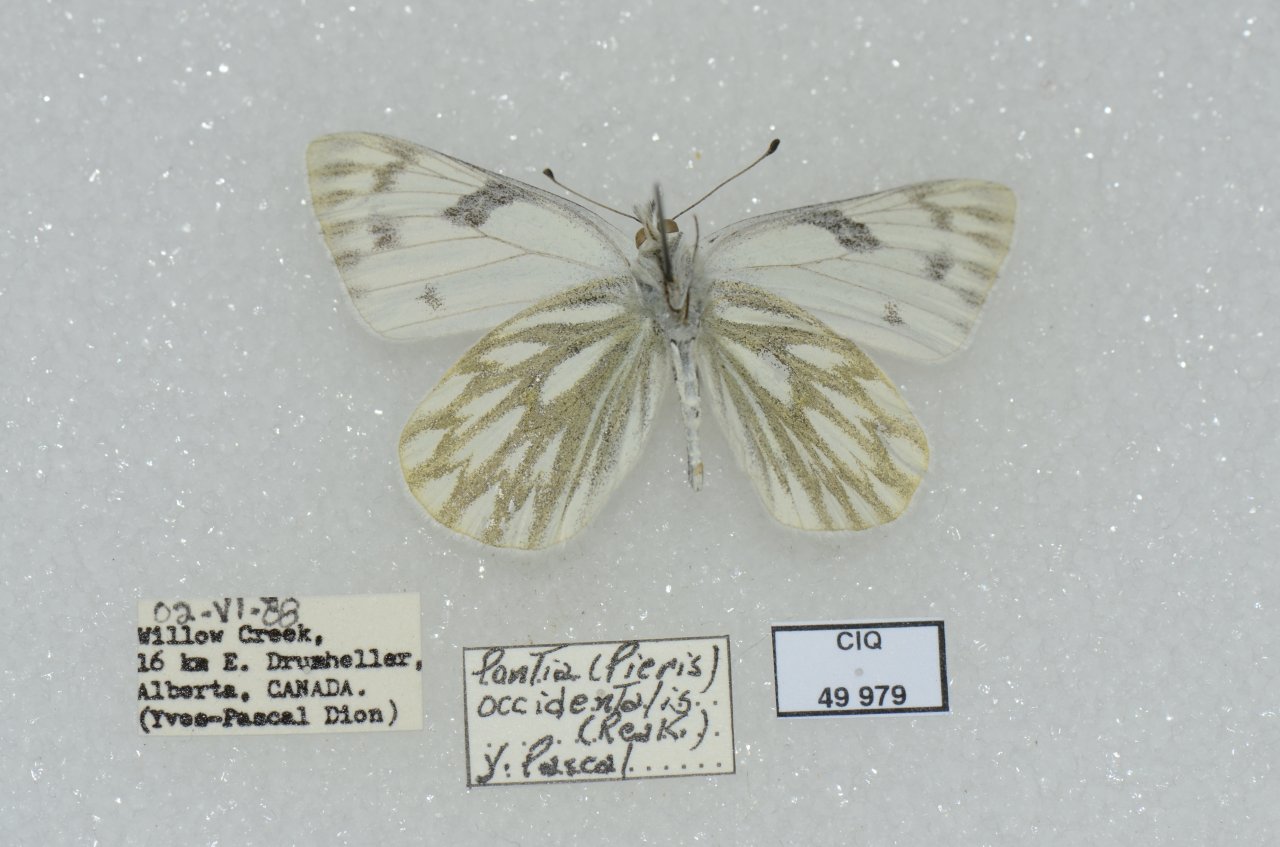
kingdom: Animalia
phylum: Arthropoda
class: Insecta
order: Lepidoptera
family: Pieridae
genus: Pontia
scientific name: Pontia occidentalis
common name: Western White
